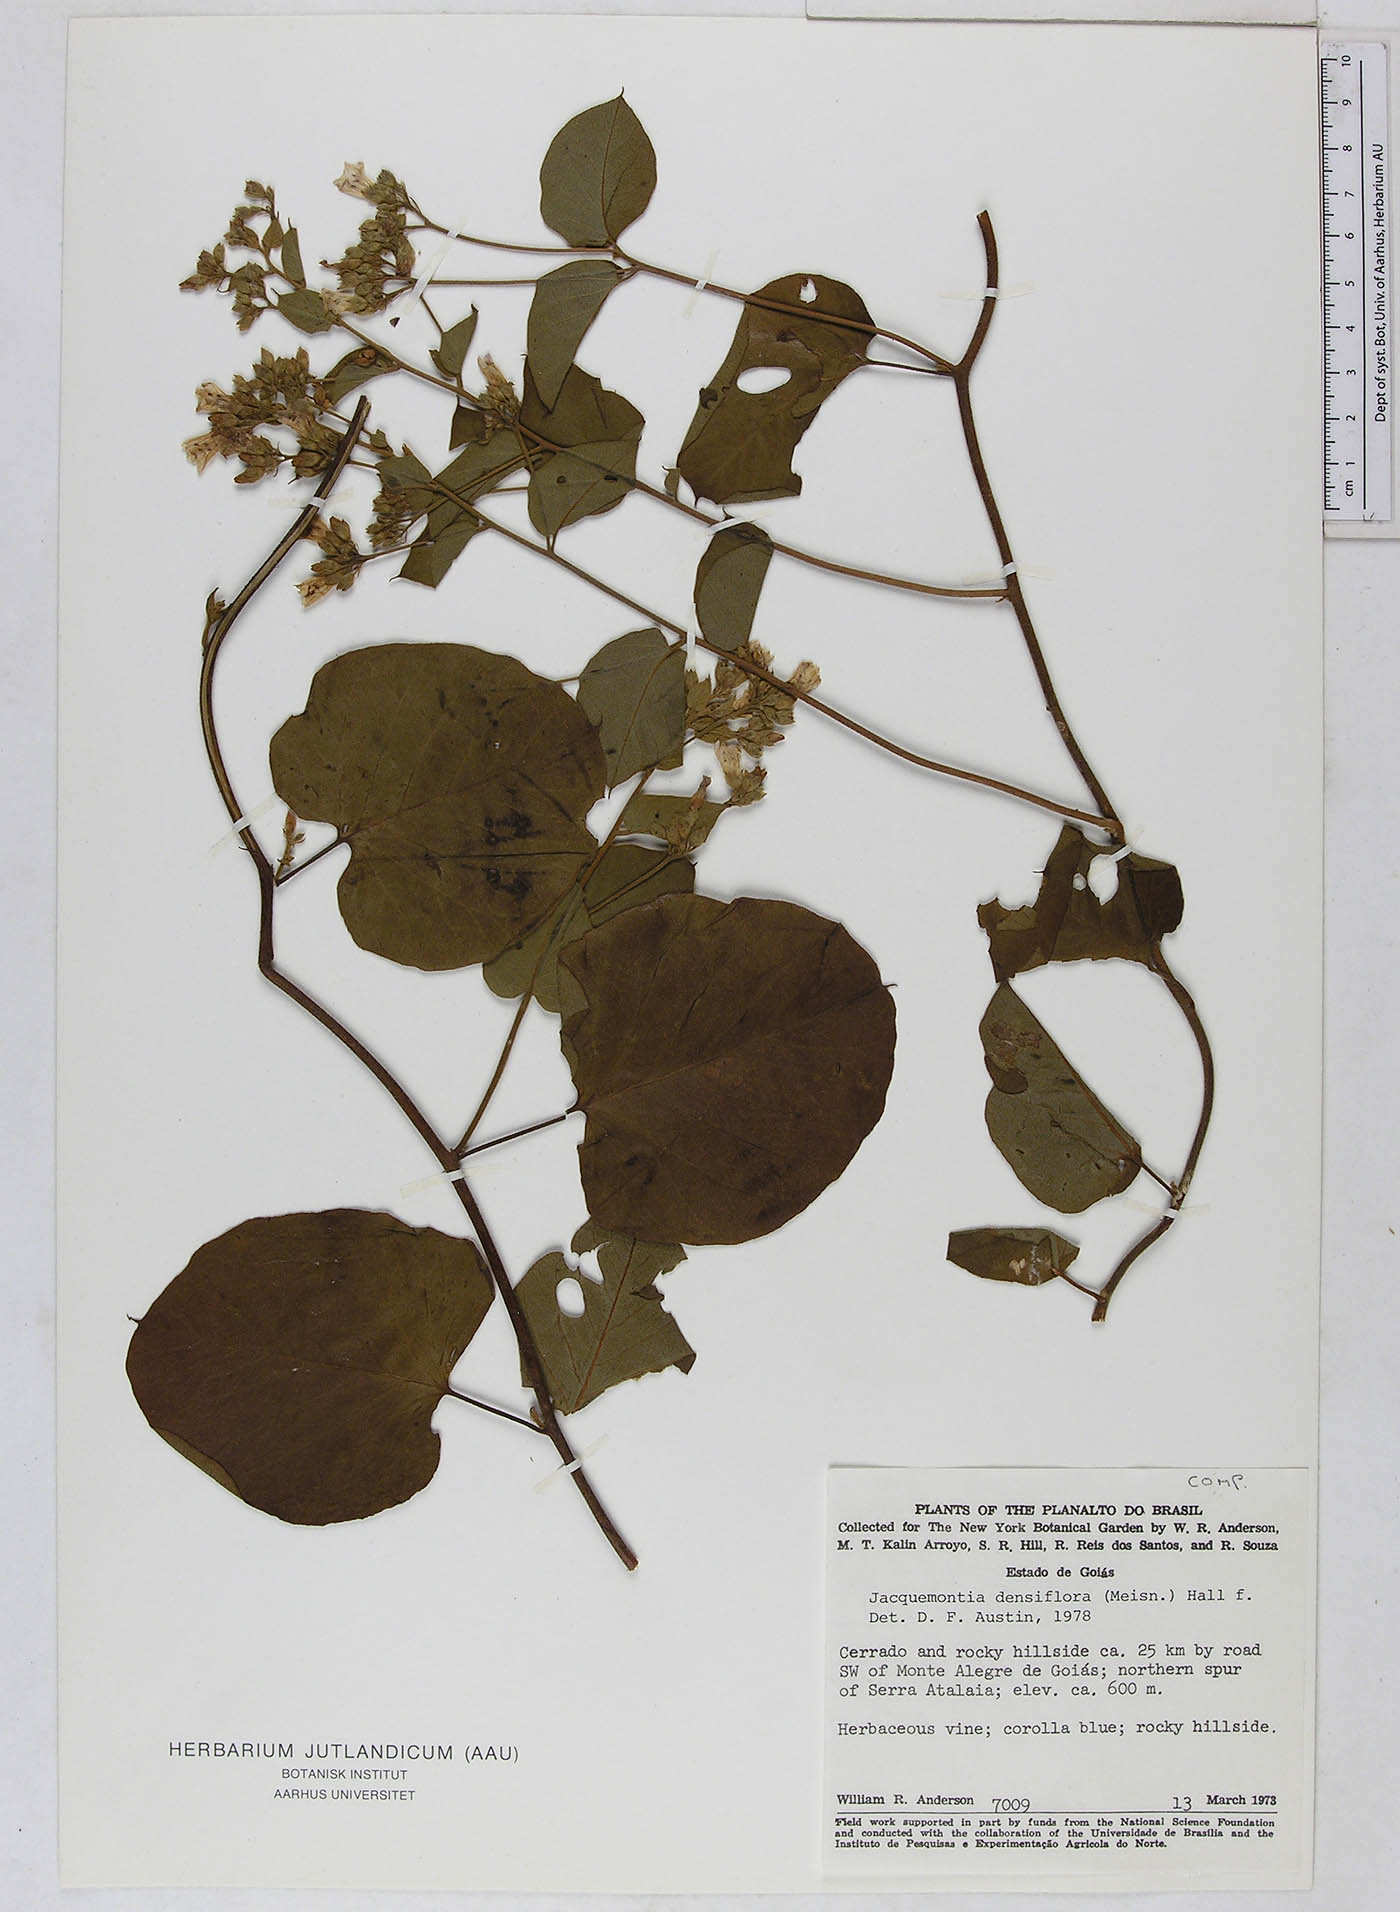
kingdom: Plantae
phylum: Tracheophyta
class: Magnoliopsida
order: Solanales
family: Convolvulaceae
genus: Jacquemontia
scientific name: Jacquemontia densiflora
